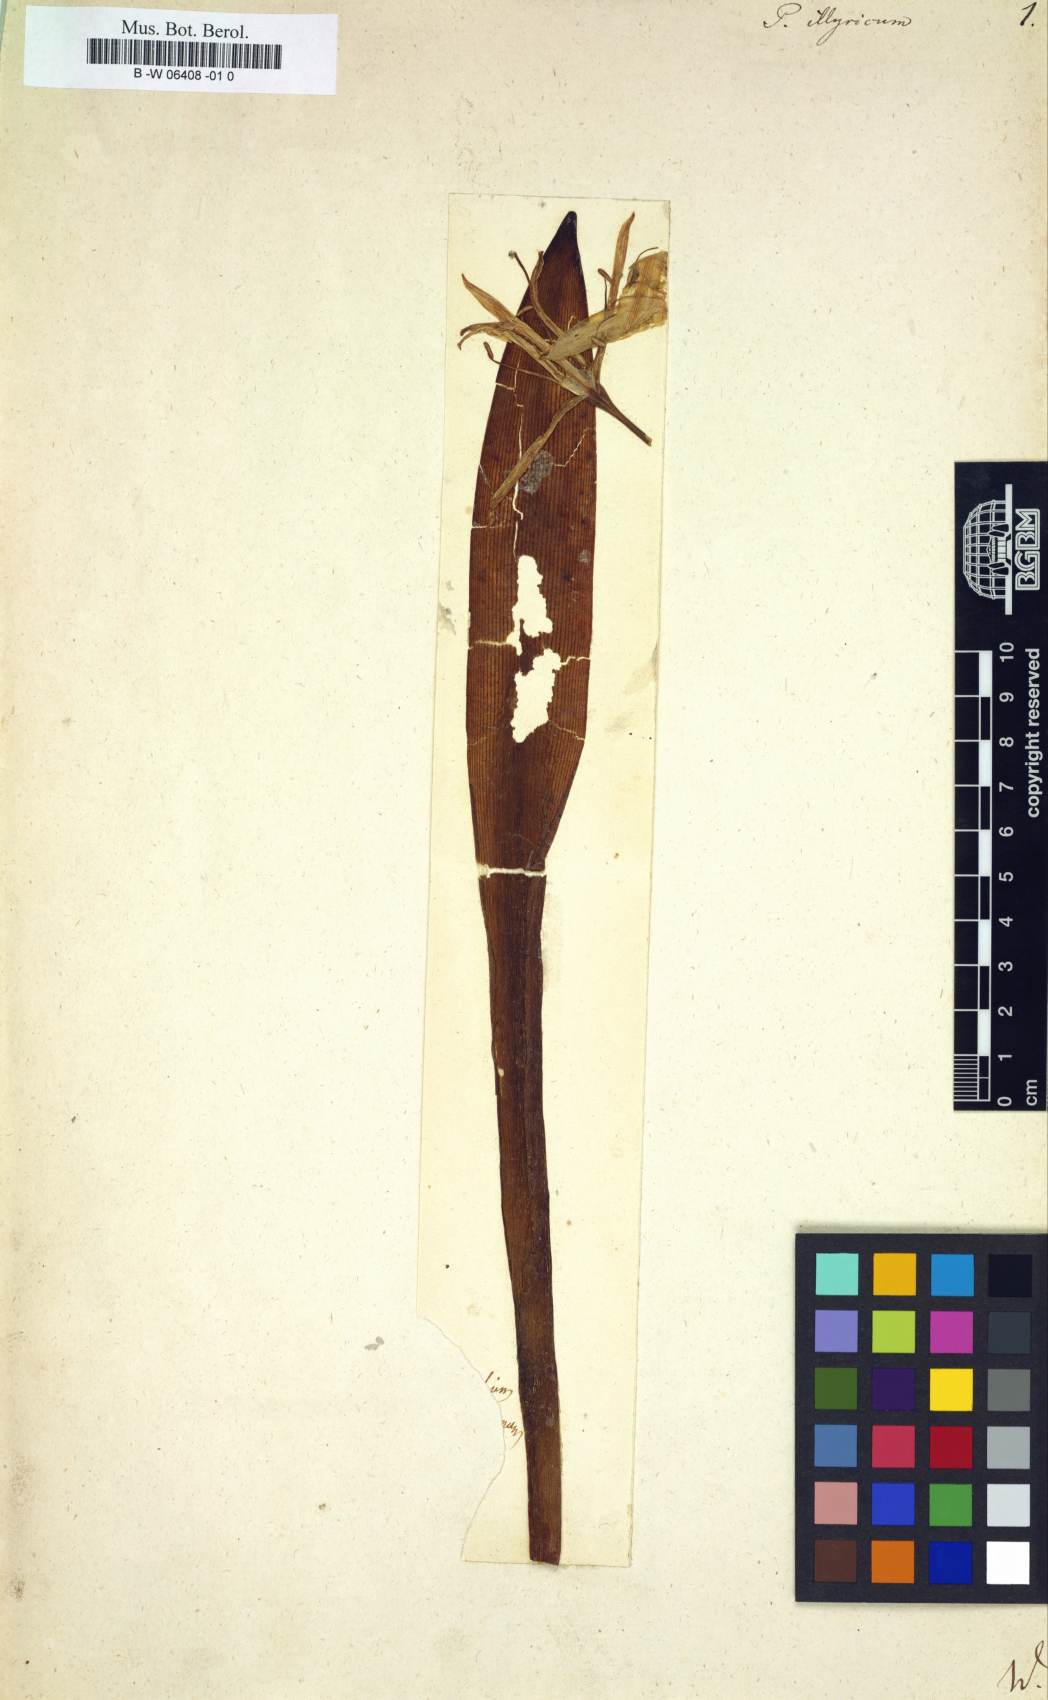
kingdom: Plantae
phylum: Tracheophyta
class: Liliopsida
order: Asparagales
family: Amaryllidaceae
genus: Pancratium
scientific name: Pancratium illyricum
